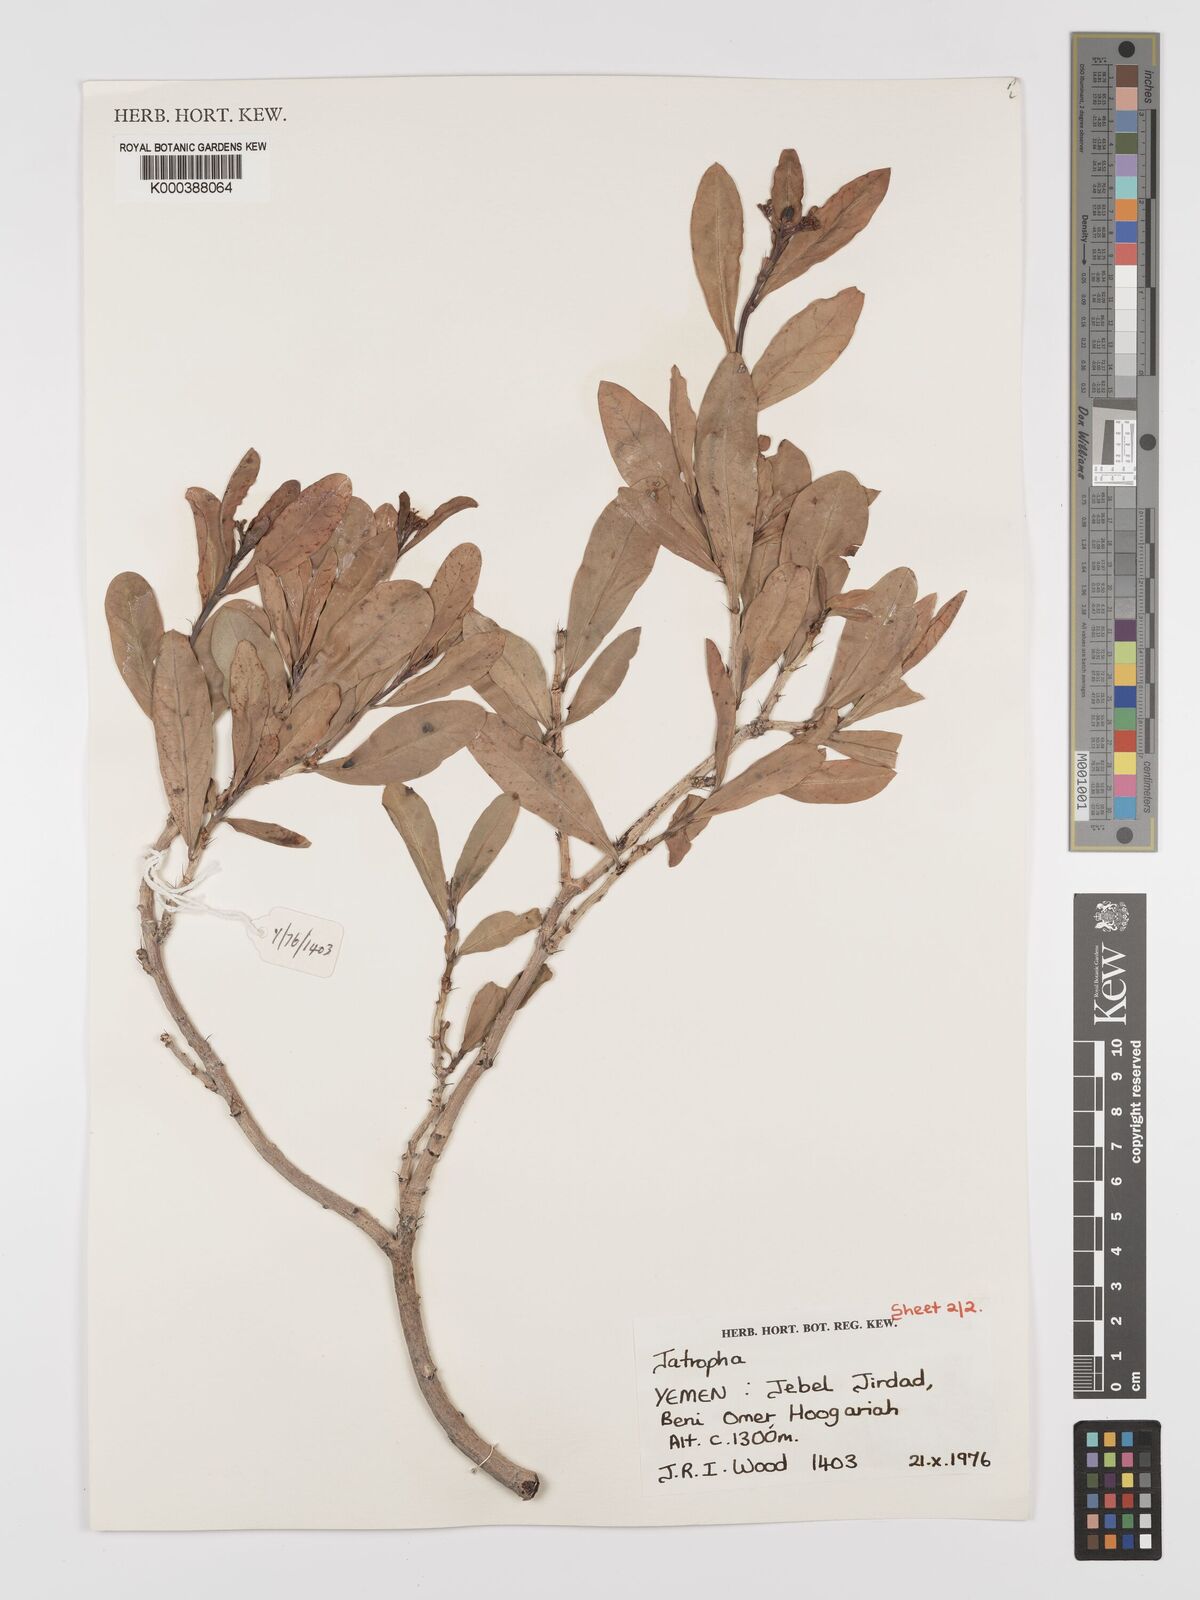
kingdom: Plantae
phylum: Tracheophyta
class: Magnoliopsida
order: Malpighiales
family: Euphorbiaceae
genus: Jatropha
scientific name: Jatropha variegata
